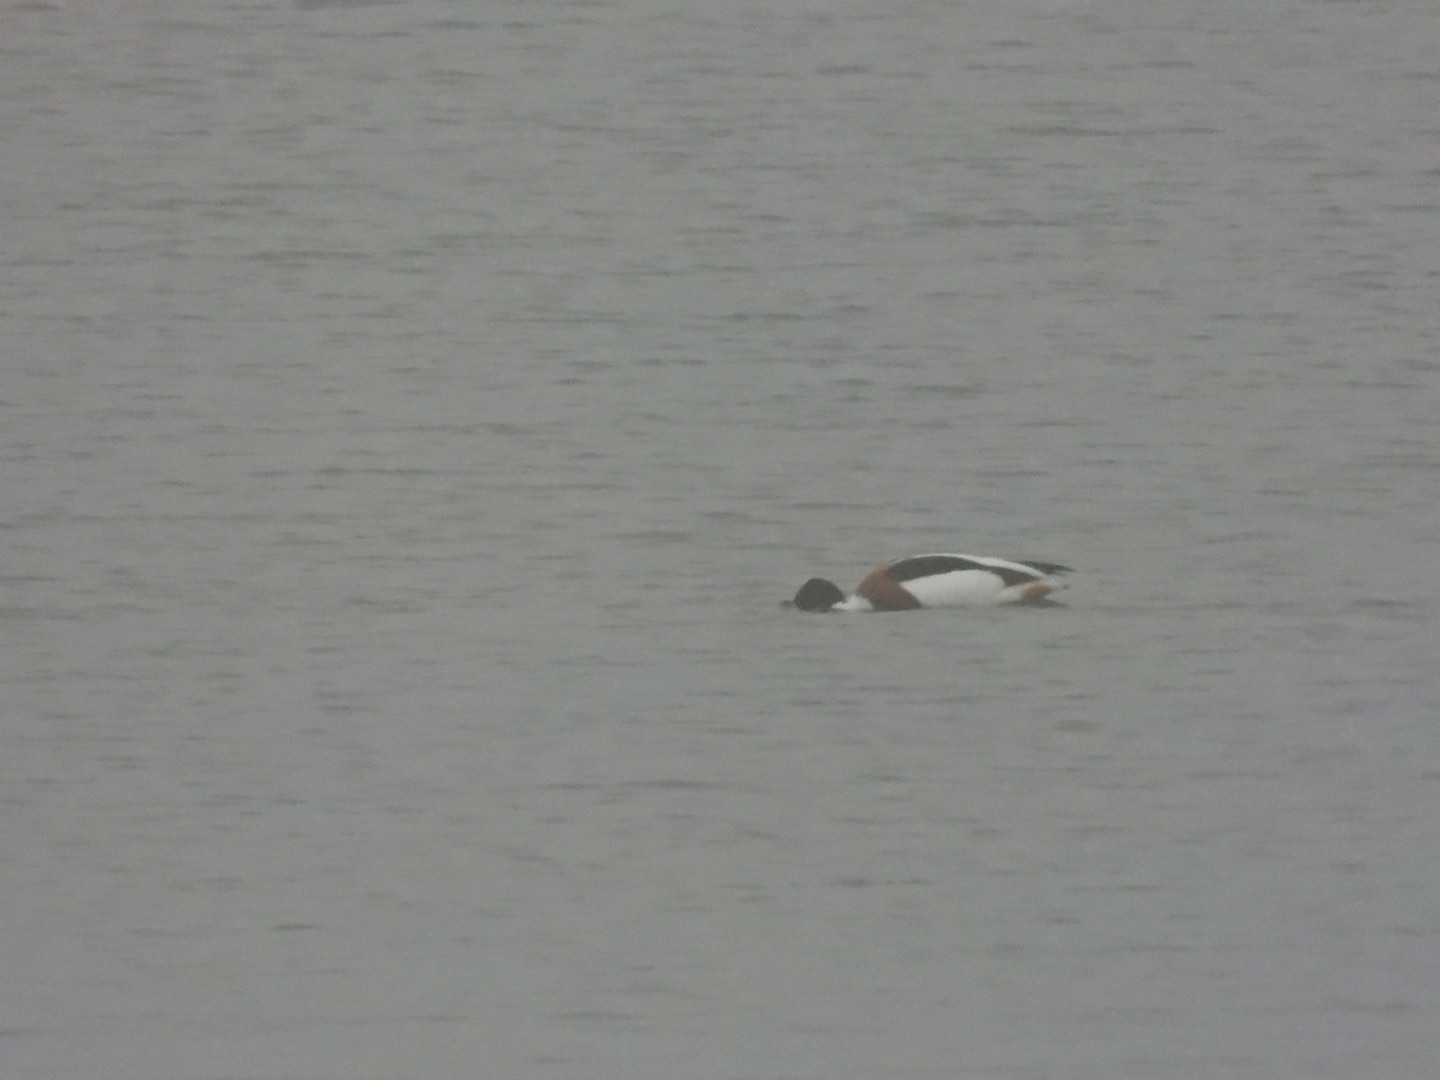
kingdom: Animalia
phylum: Chordata
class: Aves
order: Anseriformes
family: Anatidae
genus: Tadorna
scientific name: Tadorna tadorna
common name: Gravand
